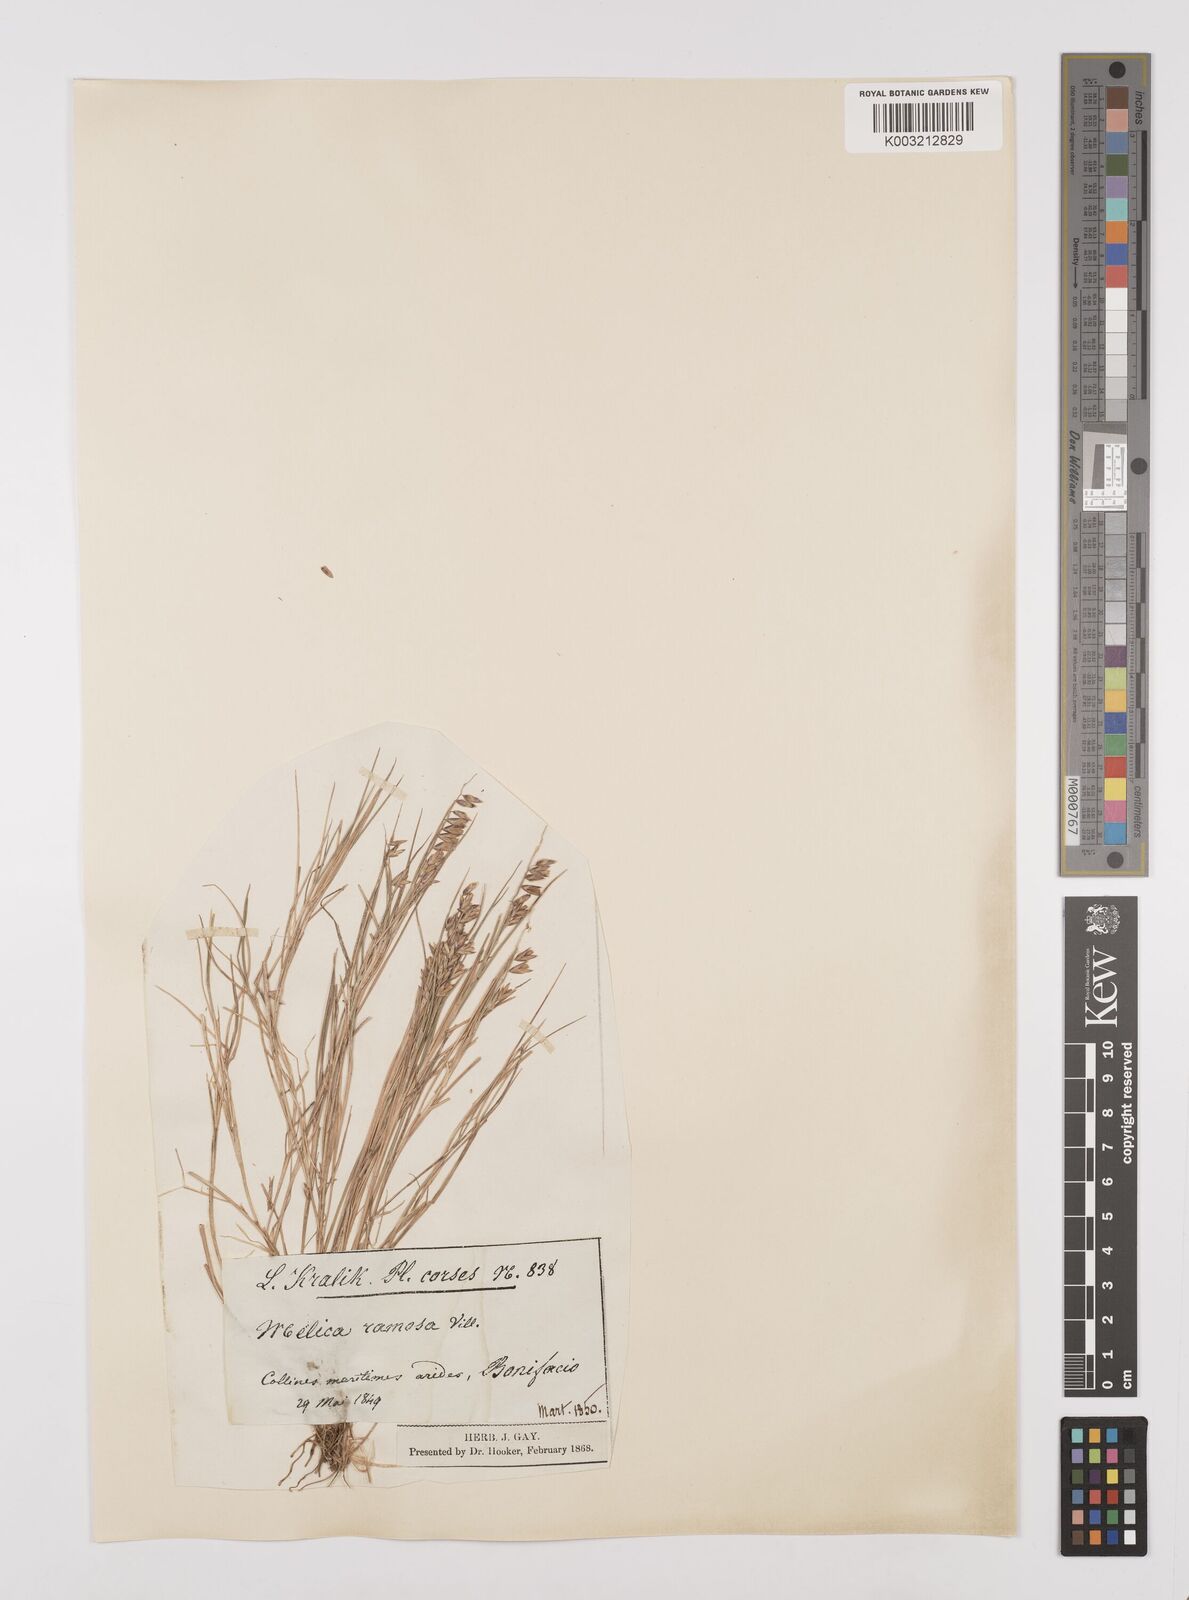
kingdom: Plantae
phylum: Tracheophyta
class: Liliopsida
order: Poales
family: Poaceae
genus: Melica
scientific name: Melica minuta
